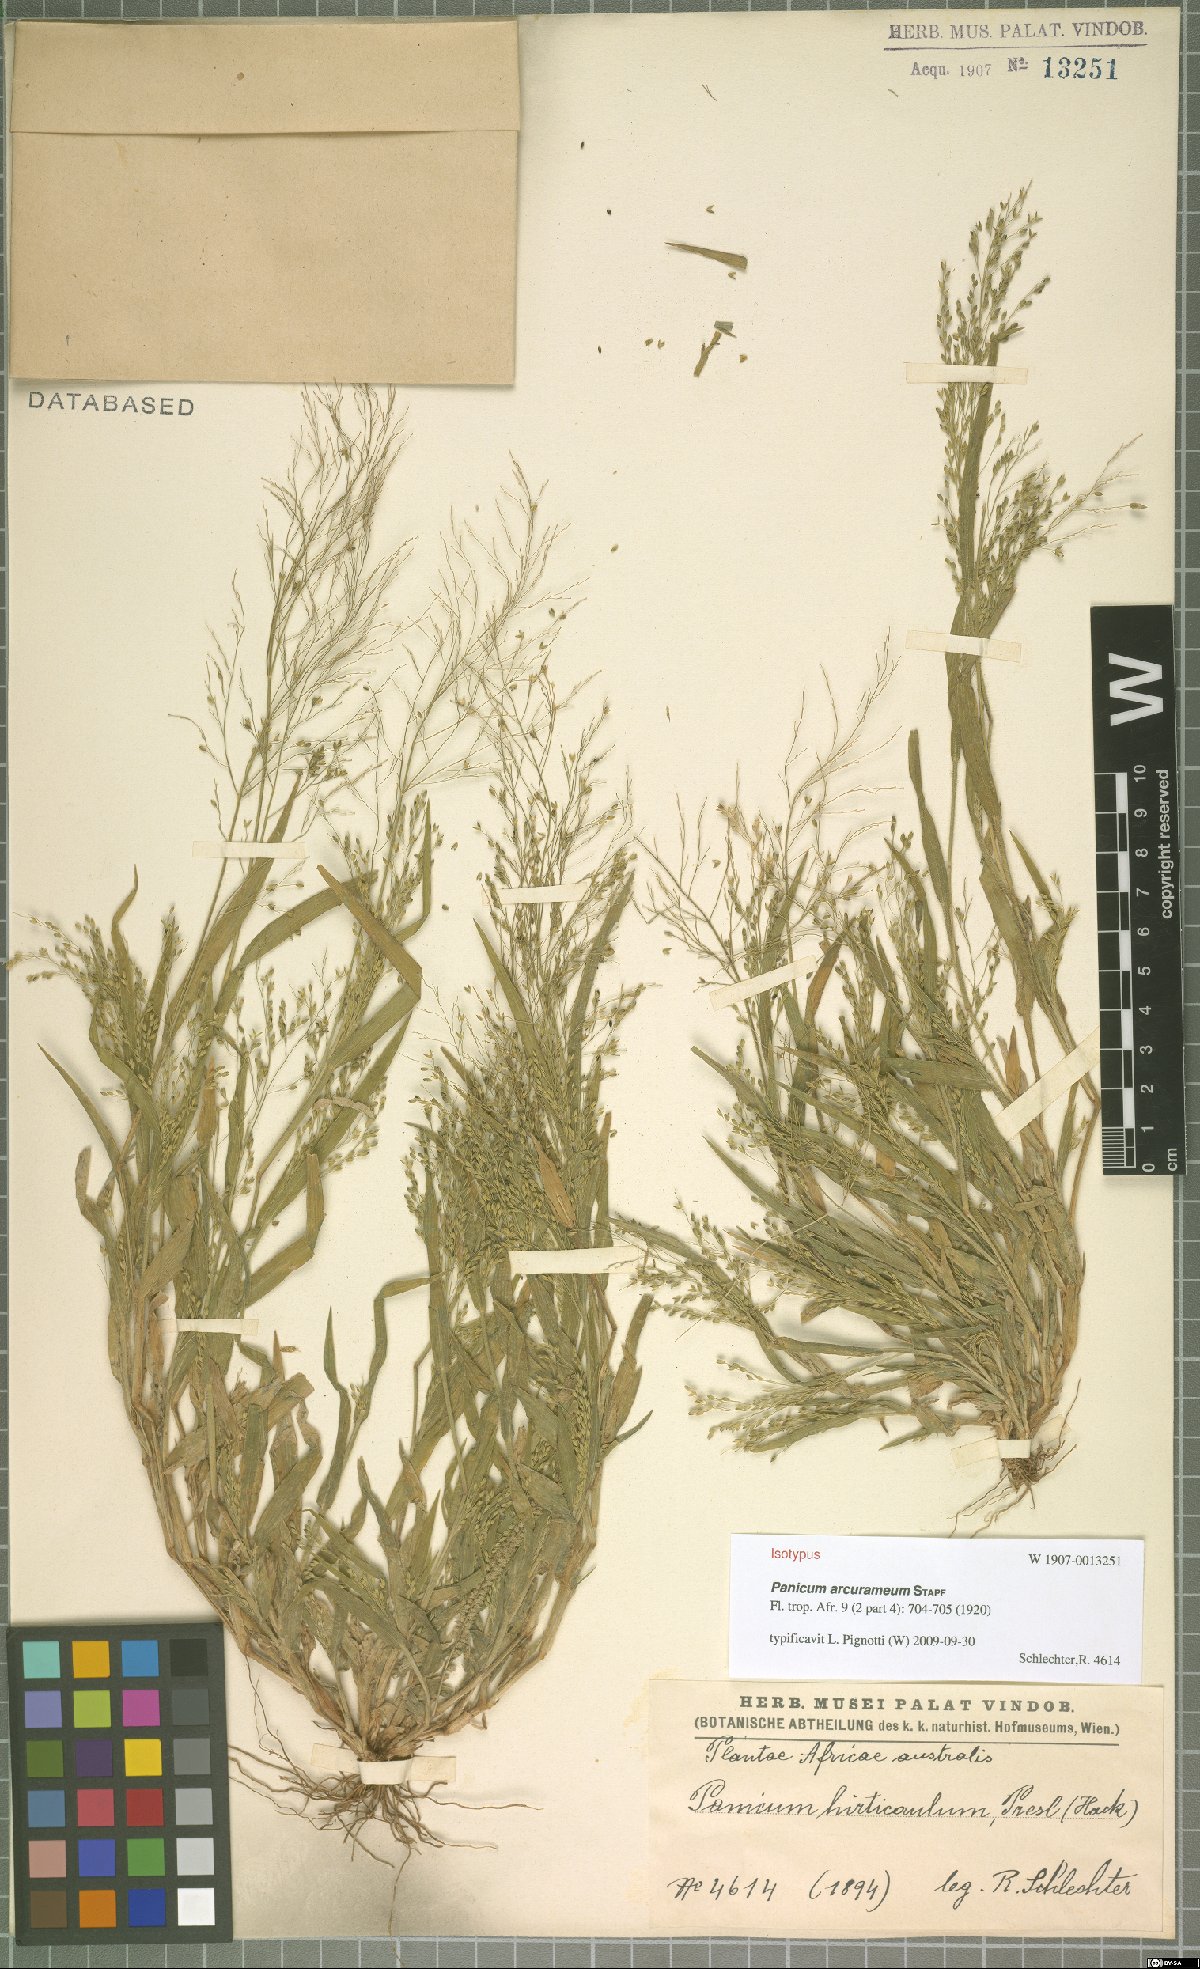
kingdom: Plantae
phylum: Tracheophyta
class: Liliopsida
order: Poales
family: Poaceae
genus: Panicum
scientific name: Panicum arcurameum
